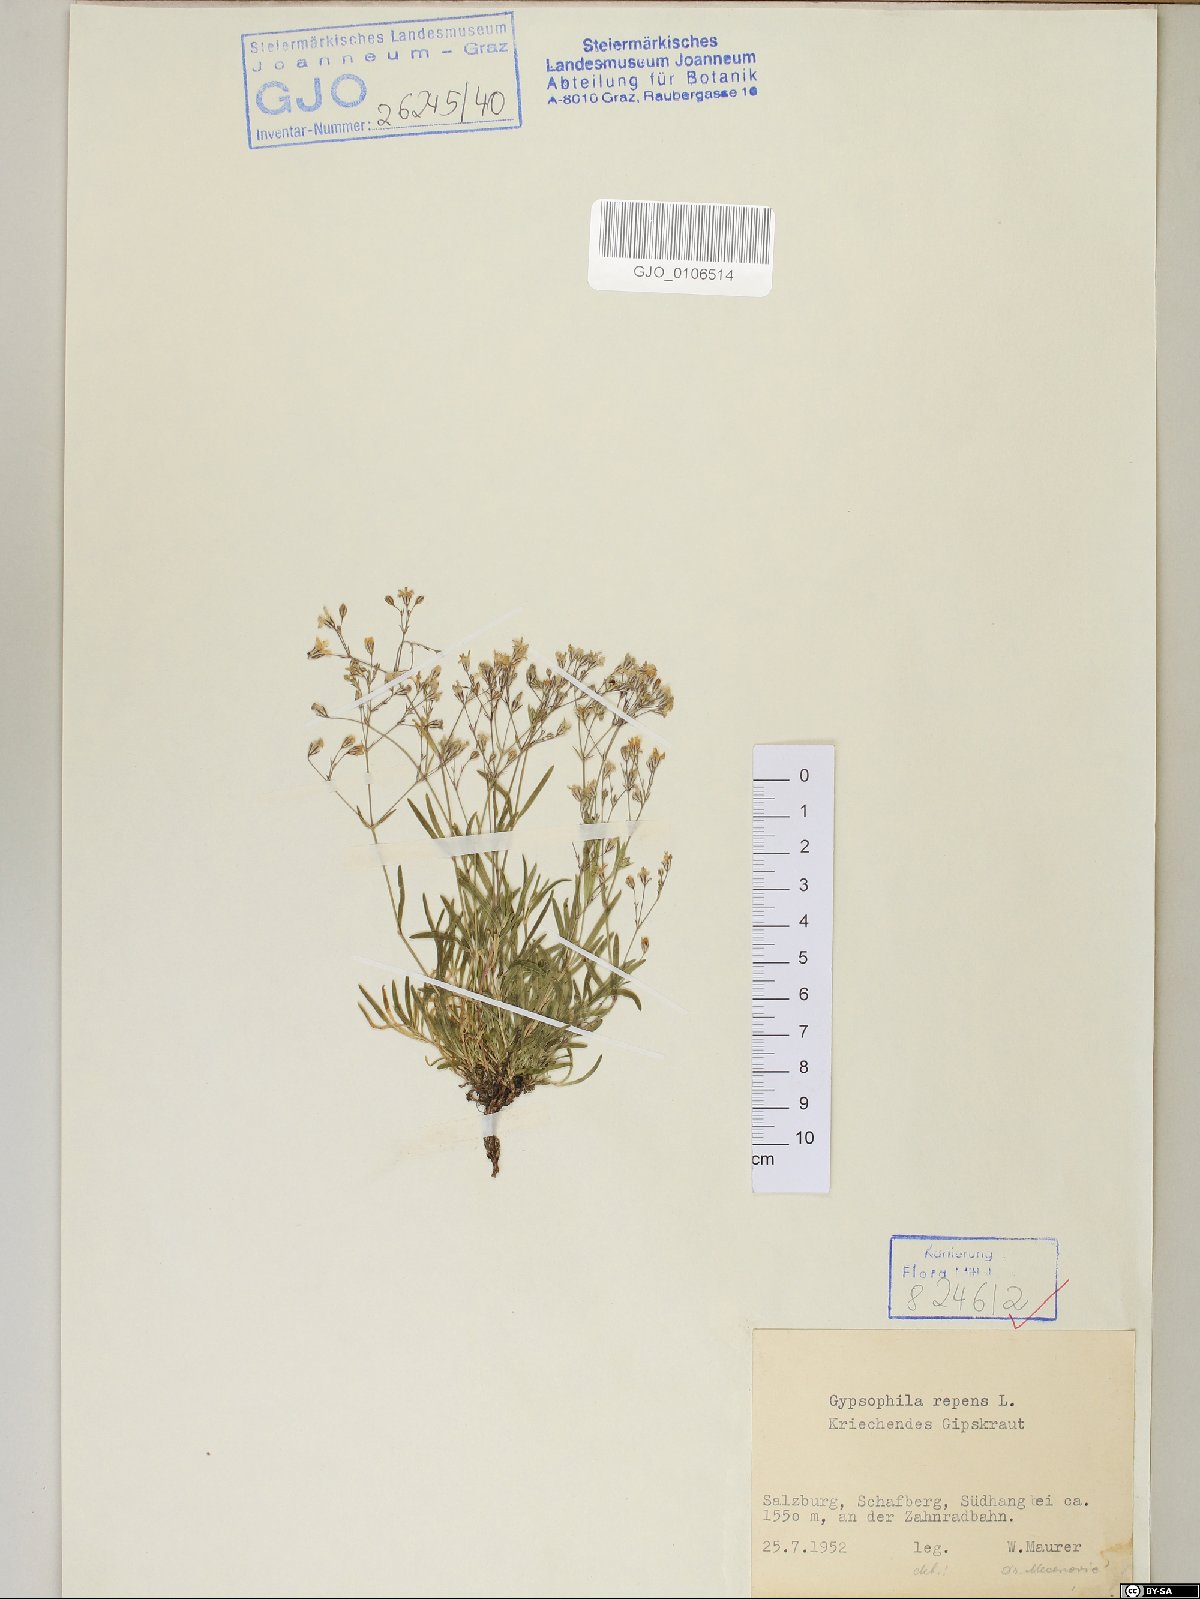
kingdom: Plantae
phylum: Tracheophyta
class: Magnoliopsida
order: Caryophyllales
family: Caryophyllaceae
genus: Gypsophila
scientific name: Gypsophila repens
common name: Creeping baby's-breath
